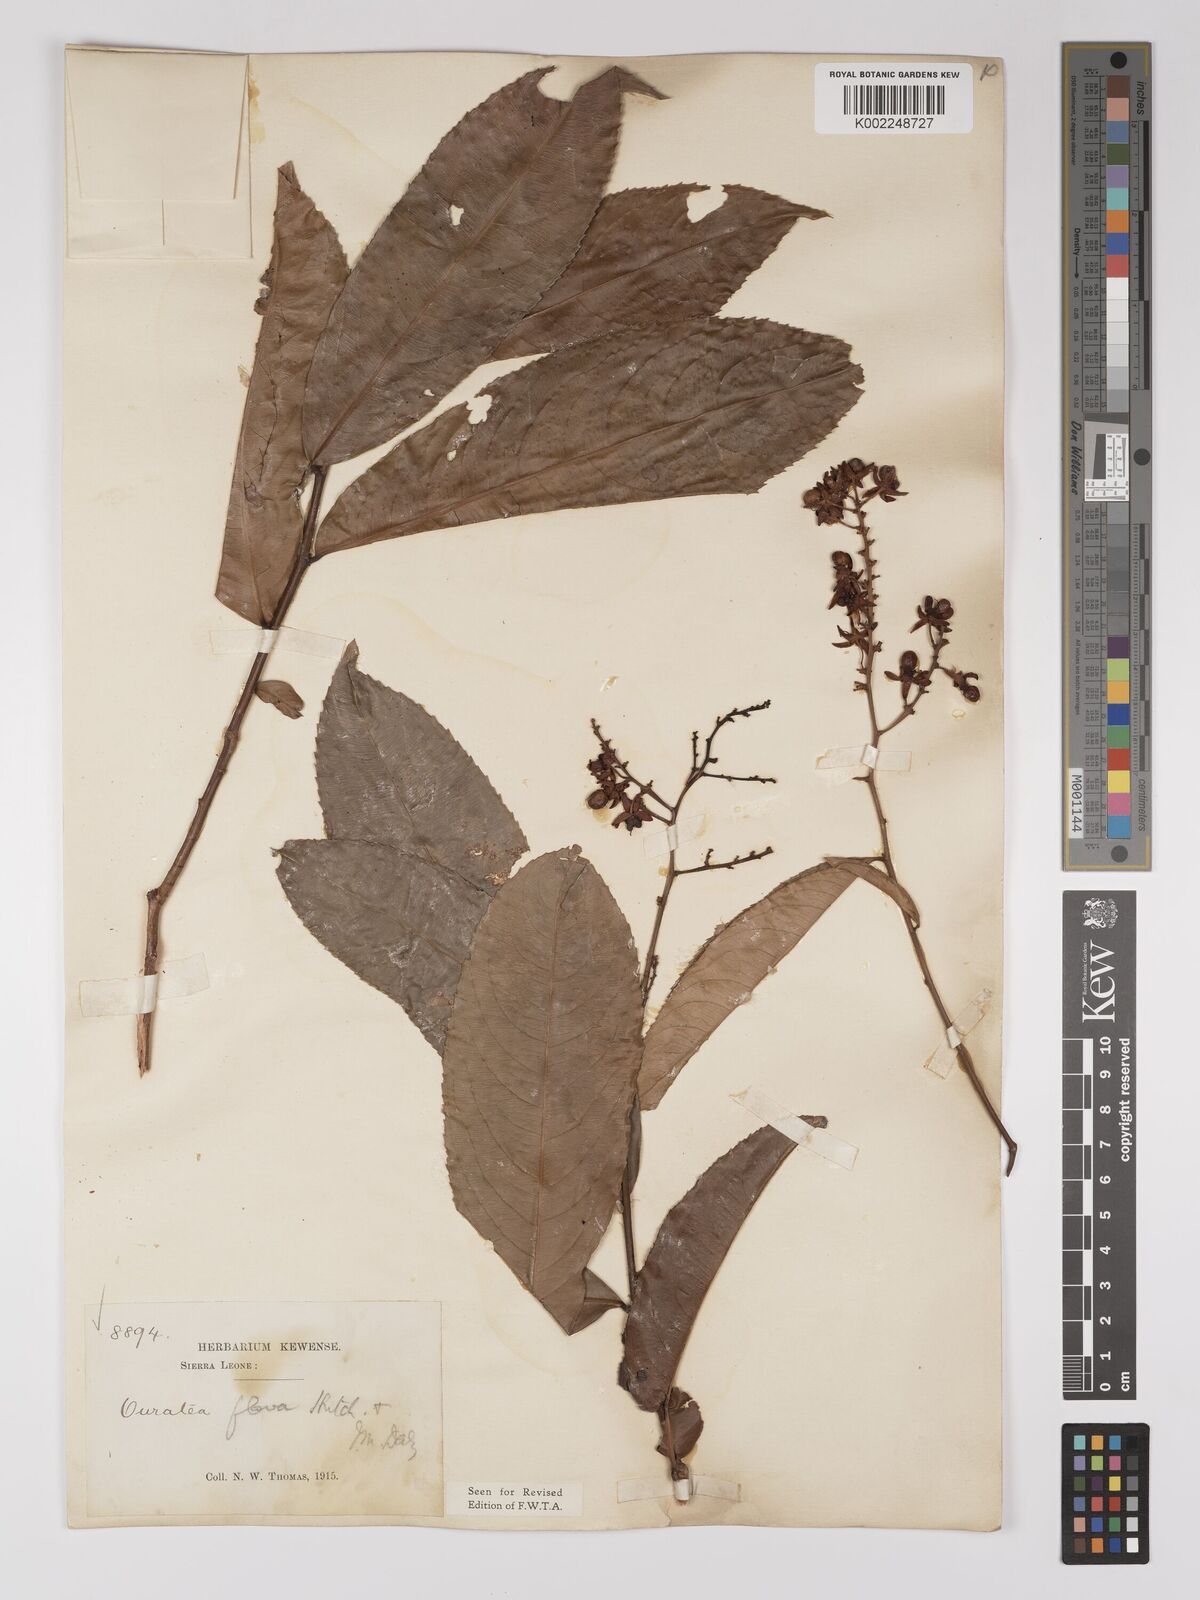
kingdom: Plantae
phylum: Tracheophyta
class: Magnoliopsida
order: Malpighiales
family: Ochnaceae
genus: Campylospermum
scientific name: Campylospermum flavum
